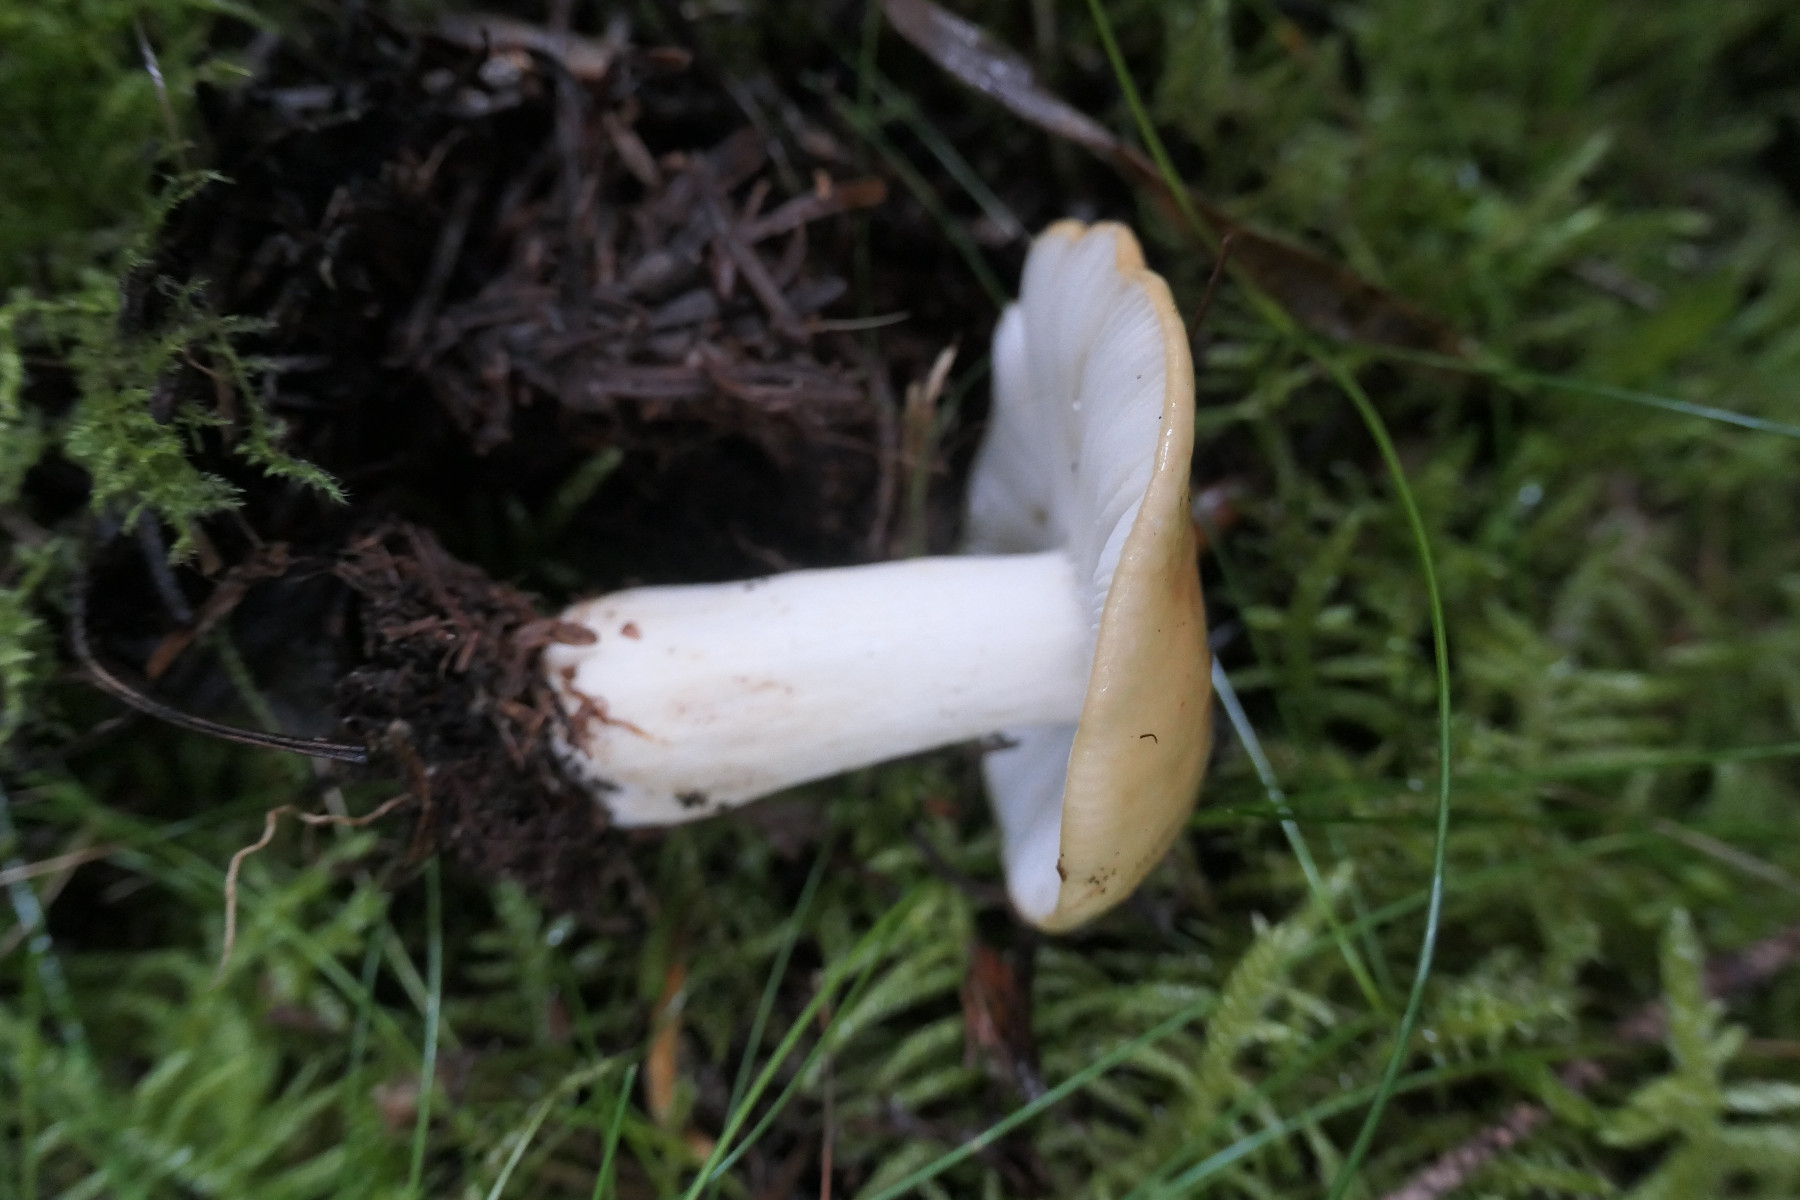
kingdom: Fungi
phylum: Basidiomycota
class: Agaricomycetes
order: Russulales
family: Russulaceae
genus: Russula
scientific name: Russula ochroleuca
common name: okkergul skørhat
